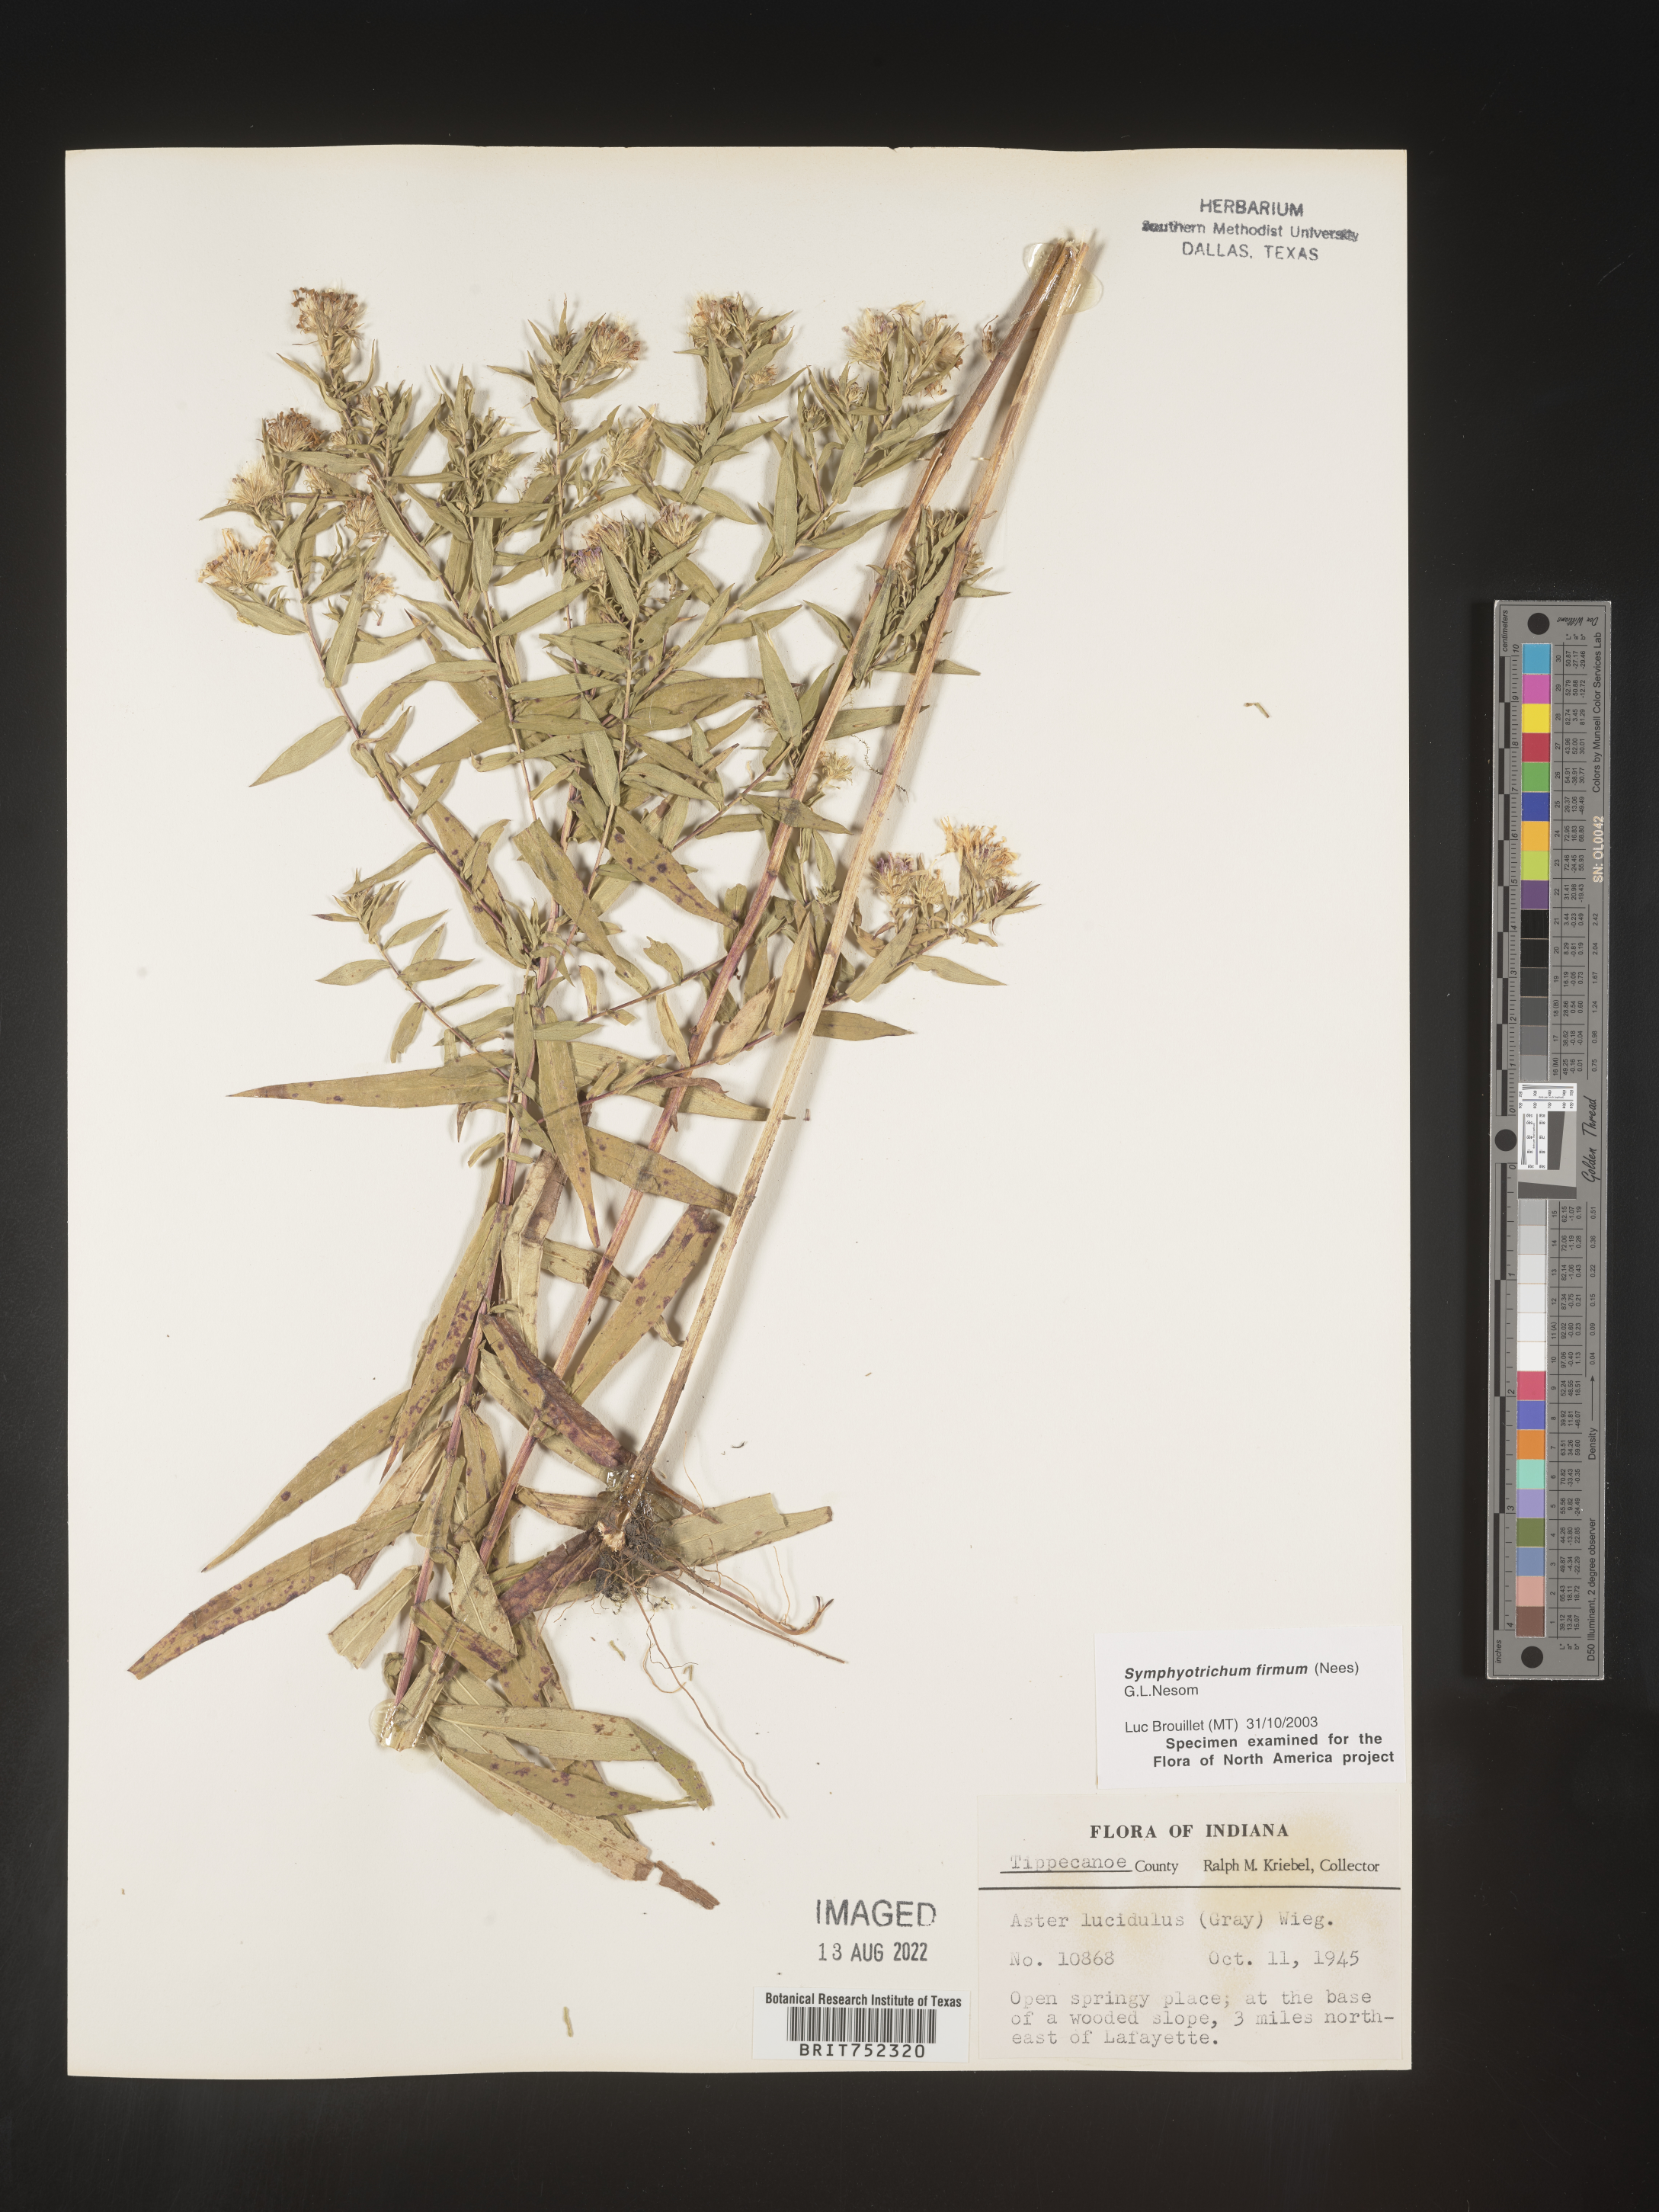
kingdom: Plantae
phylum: Tracheophyta
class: Magnoliopsida
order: Asterales
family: Asteraceae
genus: Symphyotrichum
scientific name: Symphyotrichum firmum
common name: Shining aster
